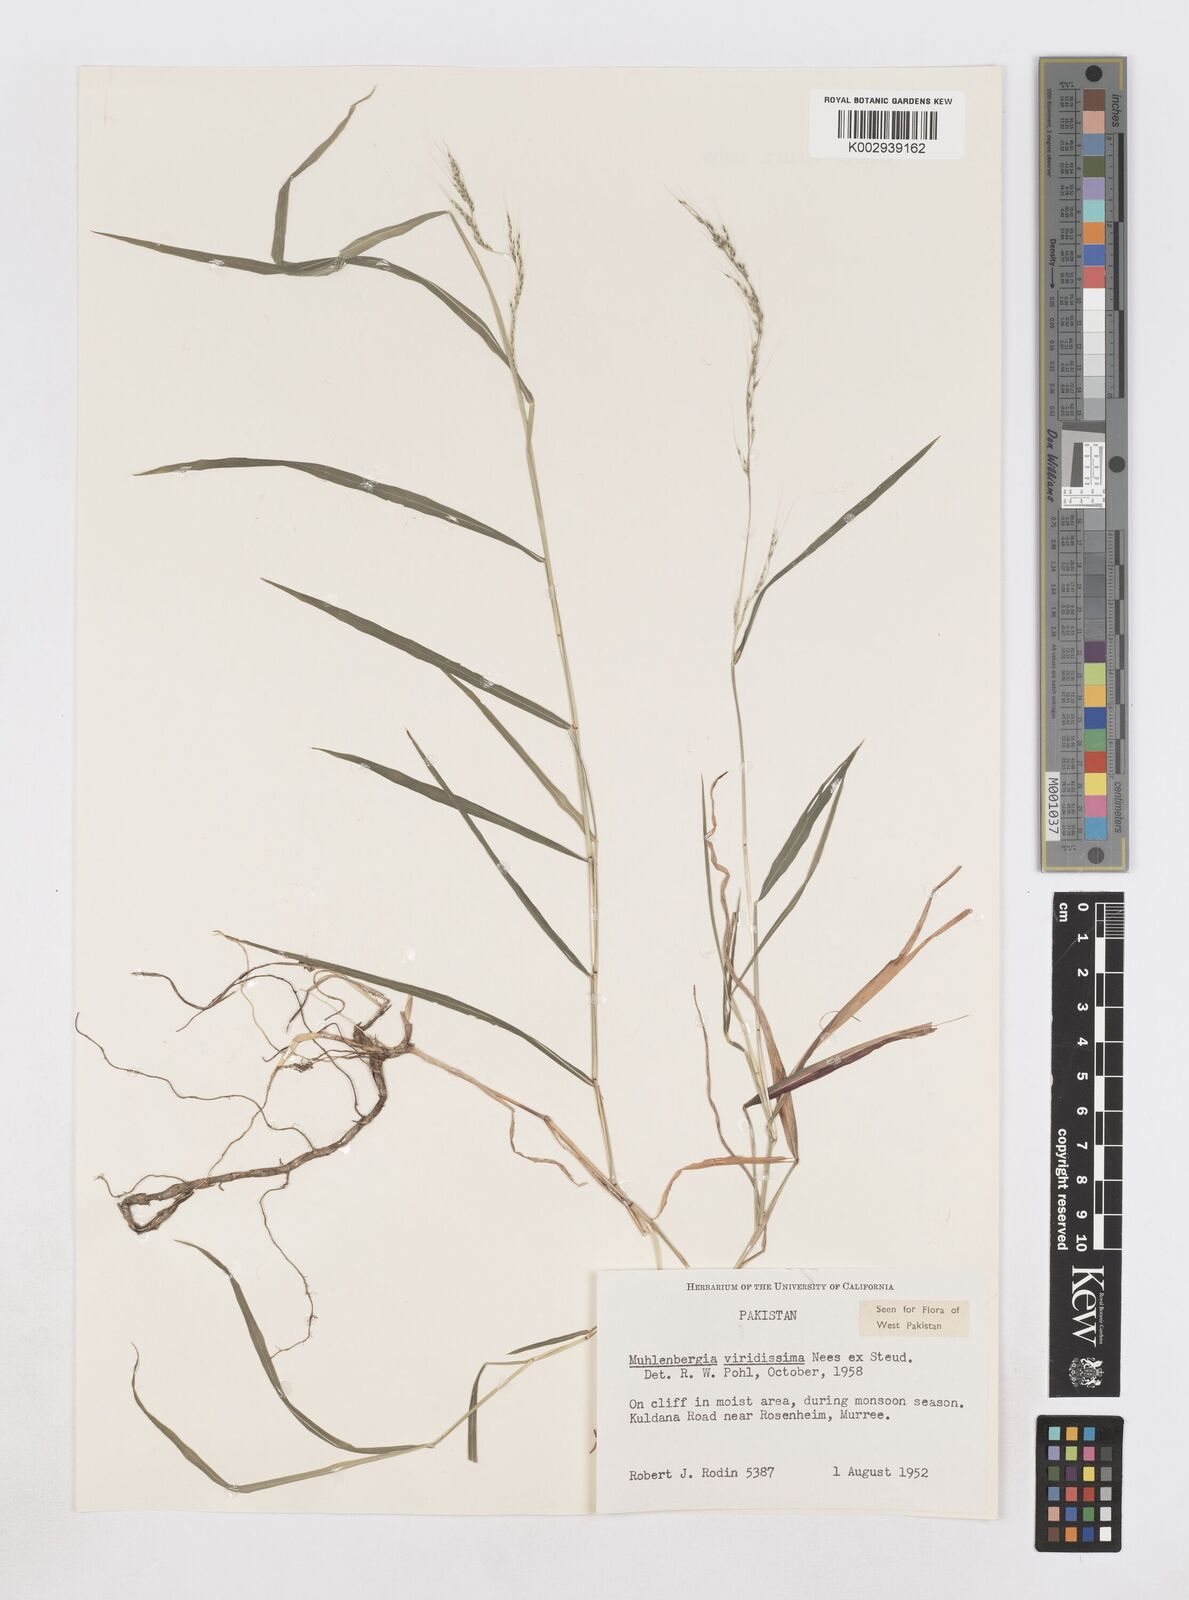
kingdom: Plantae
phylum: Tracheophyta
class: Liliopsida
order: Poales
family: Poaceae
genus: Muhlenbergia
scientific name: Muhlenbergia huegelii
